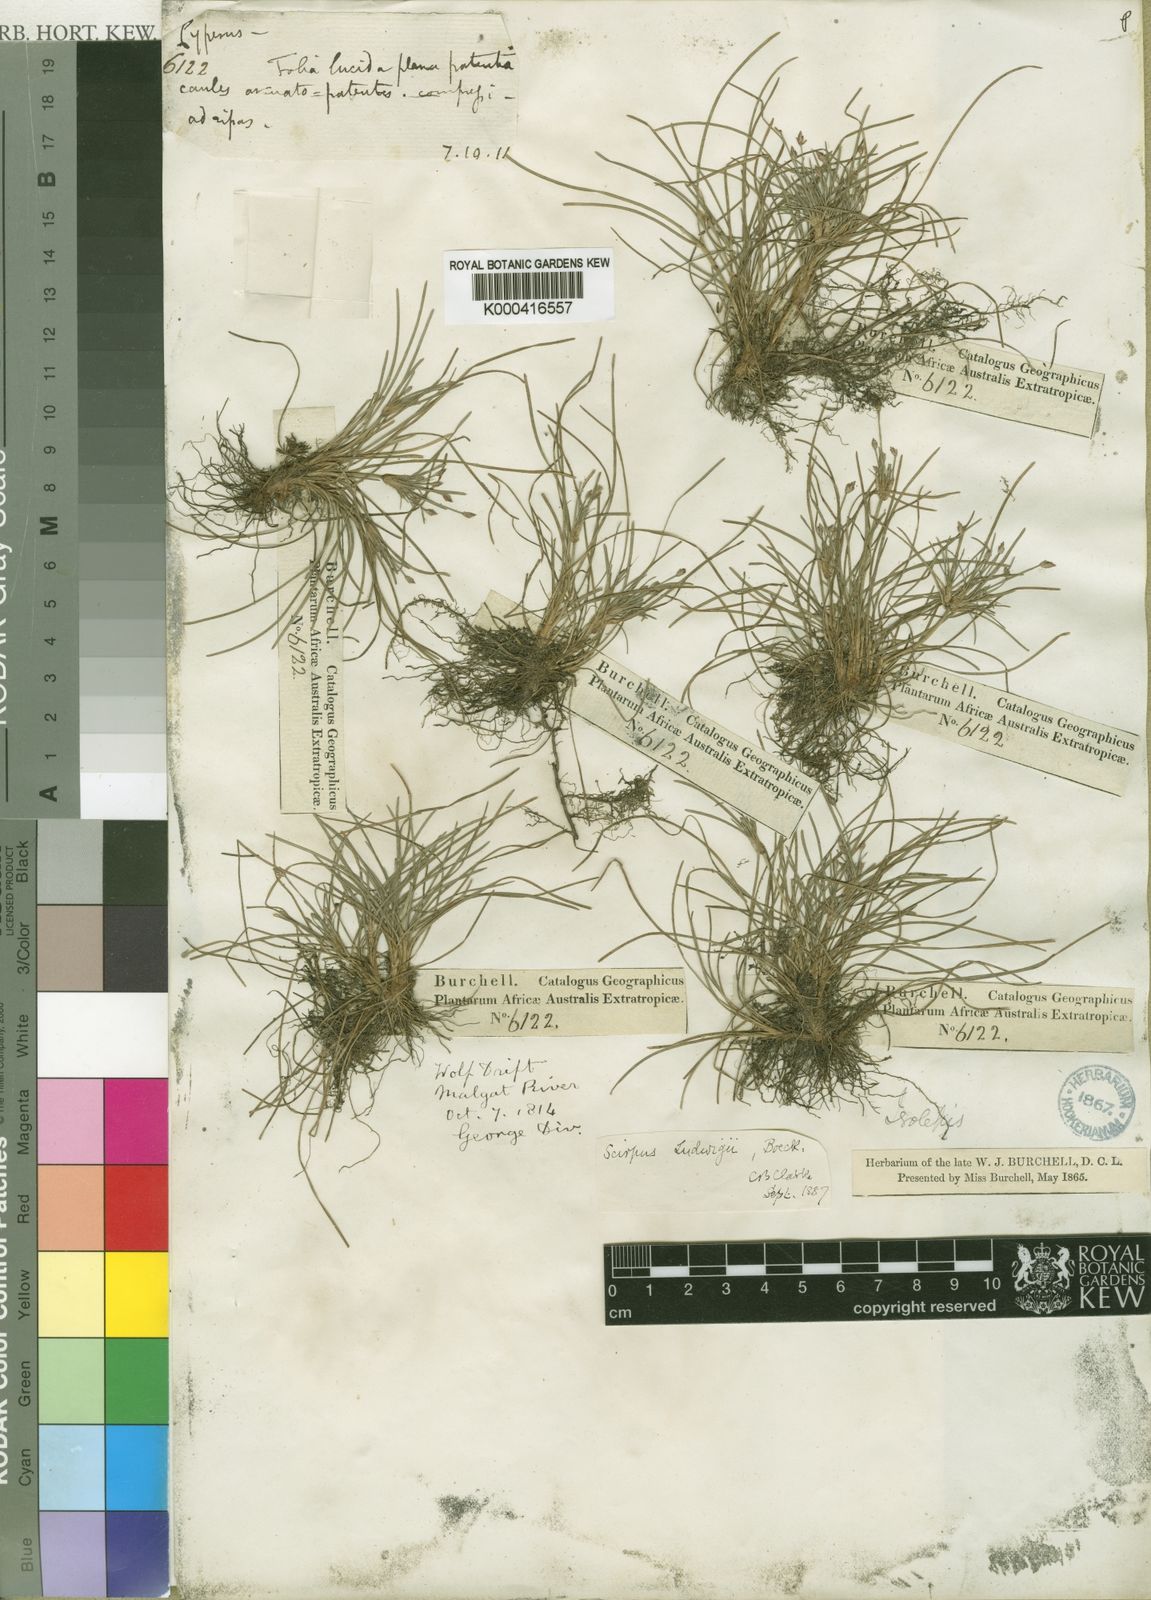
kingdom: Plantae
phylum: Tracheophyta
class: Liliopsida
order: Poales
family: Cyperaceae
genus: Isolepis
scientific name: Isolepis ludwigii
